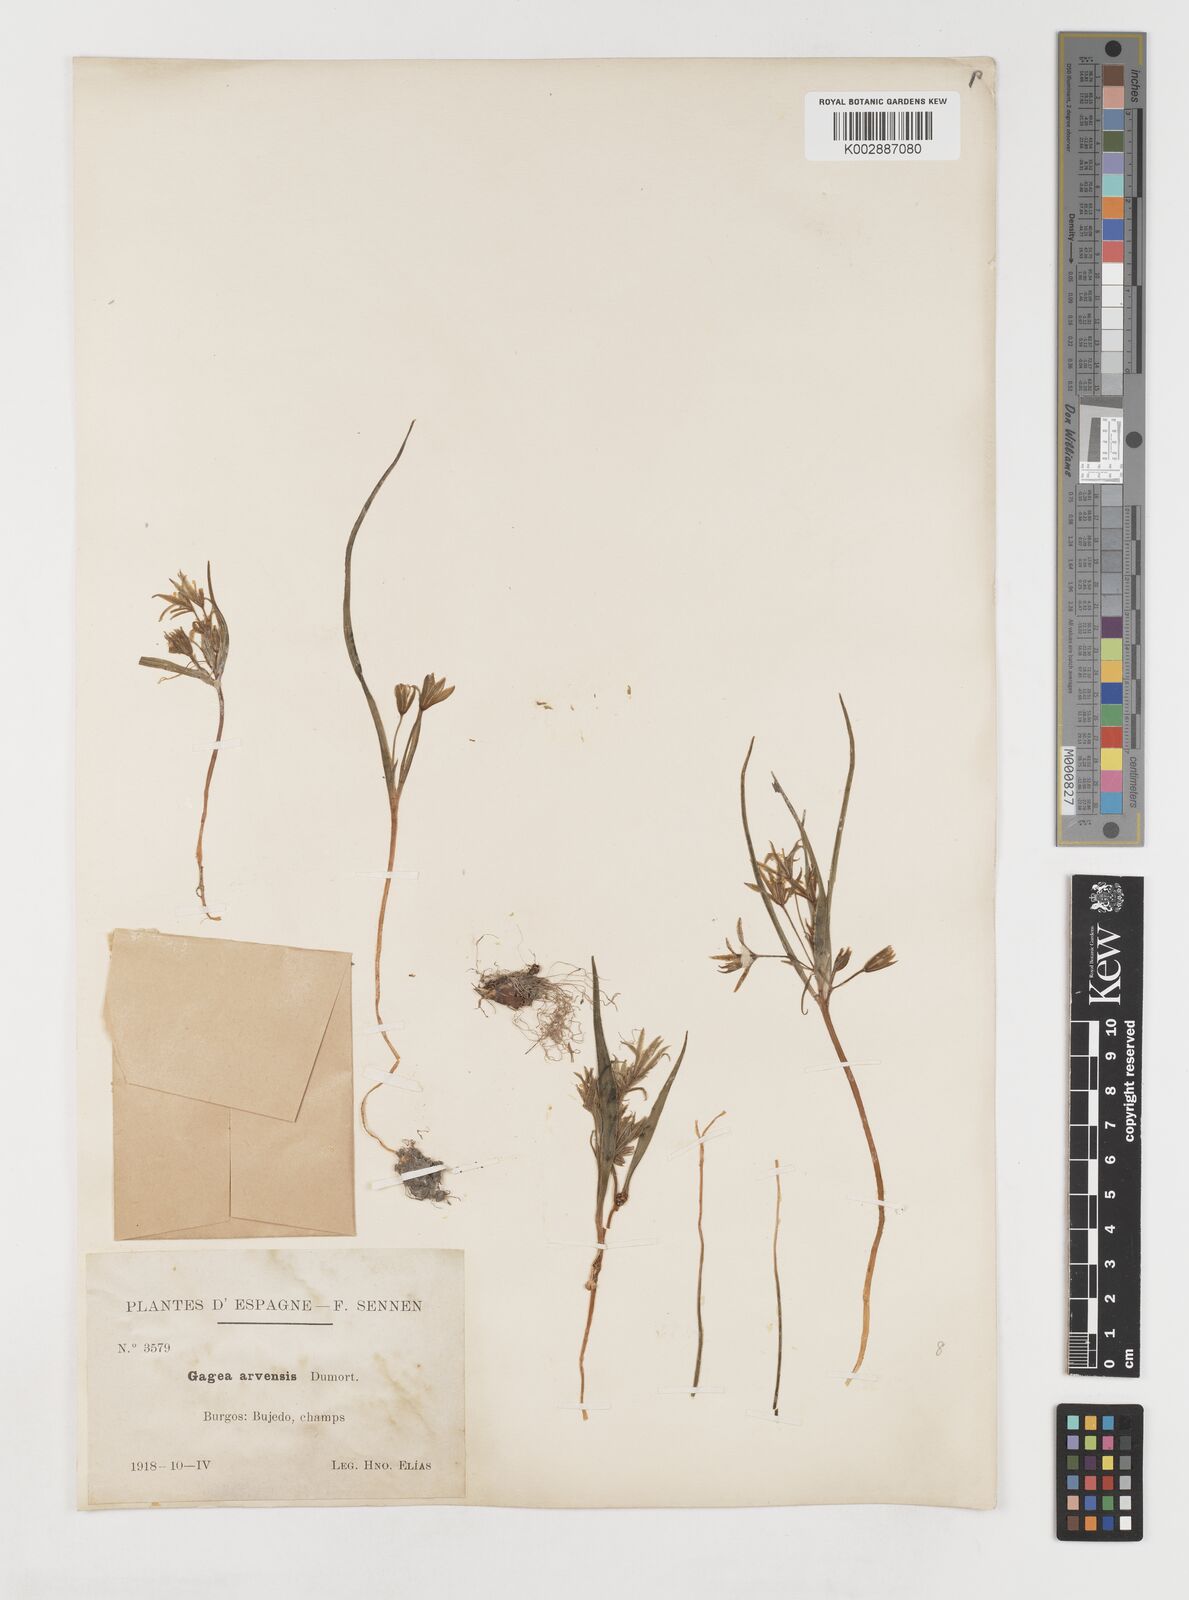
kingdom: Plantae
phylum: Tracheophyta
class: Liliopsida
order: Liliales
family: Liliaceae
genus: Gagea
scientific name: Gagea minima
